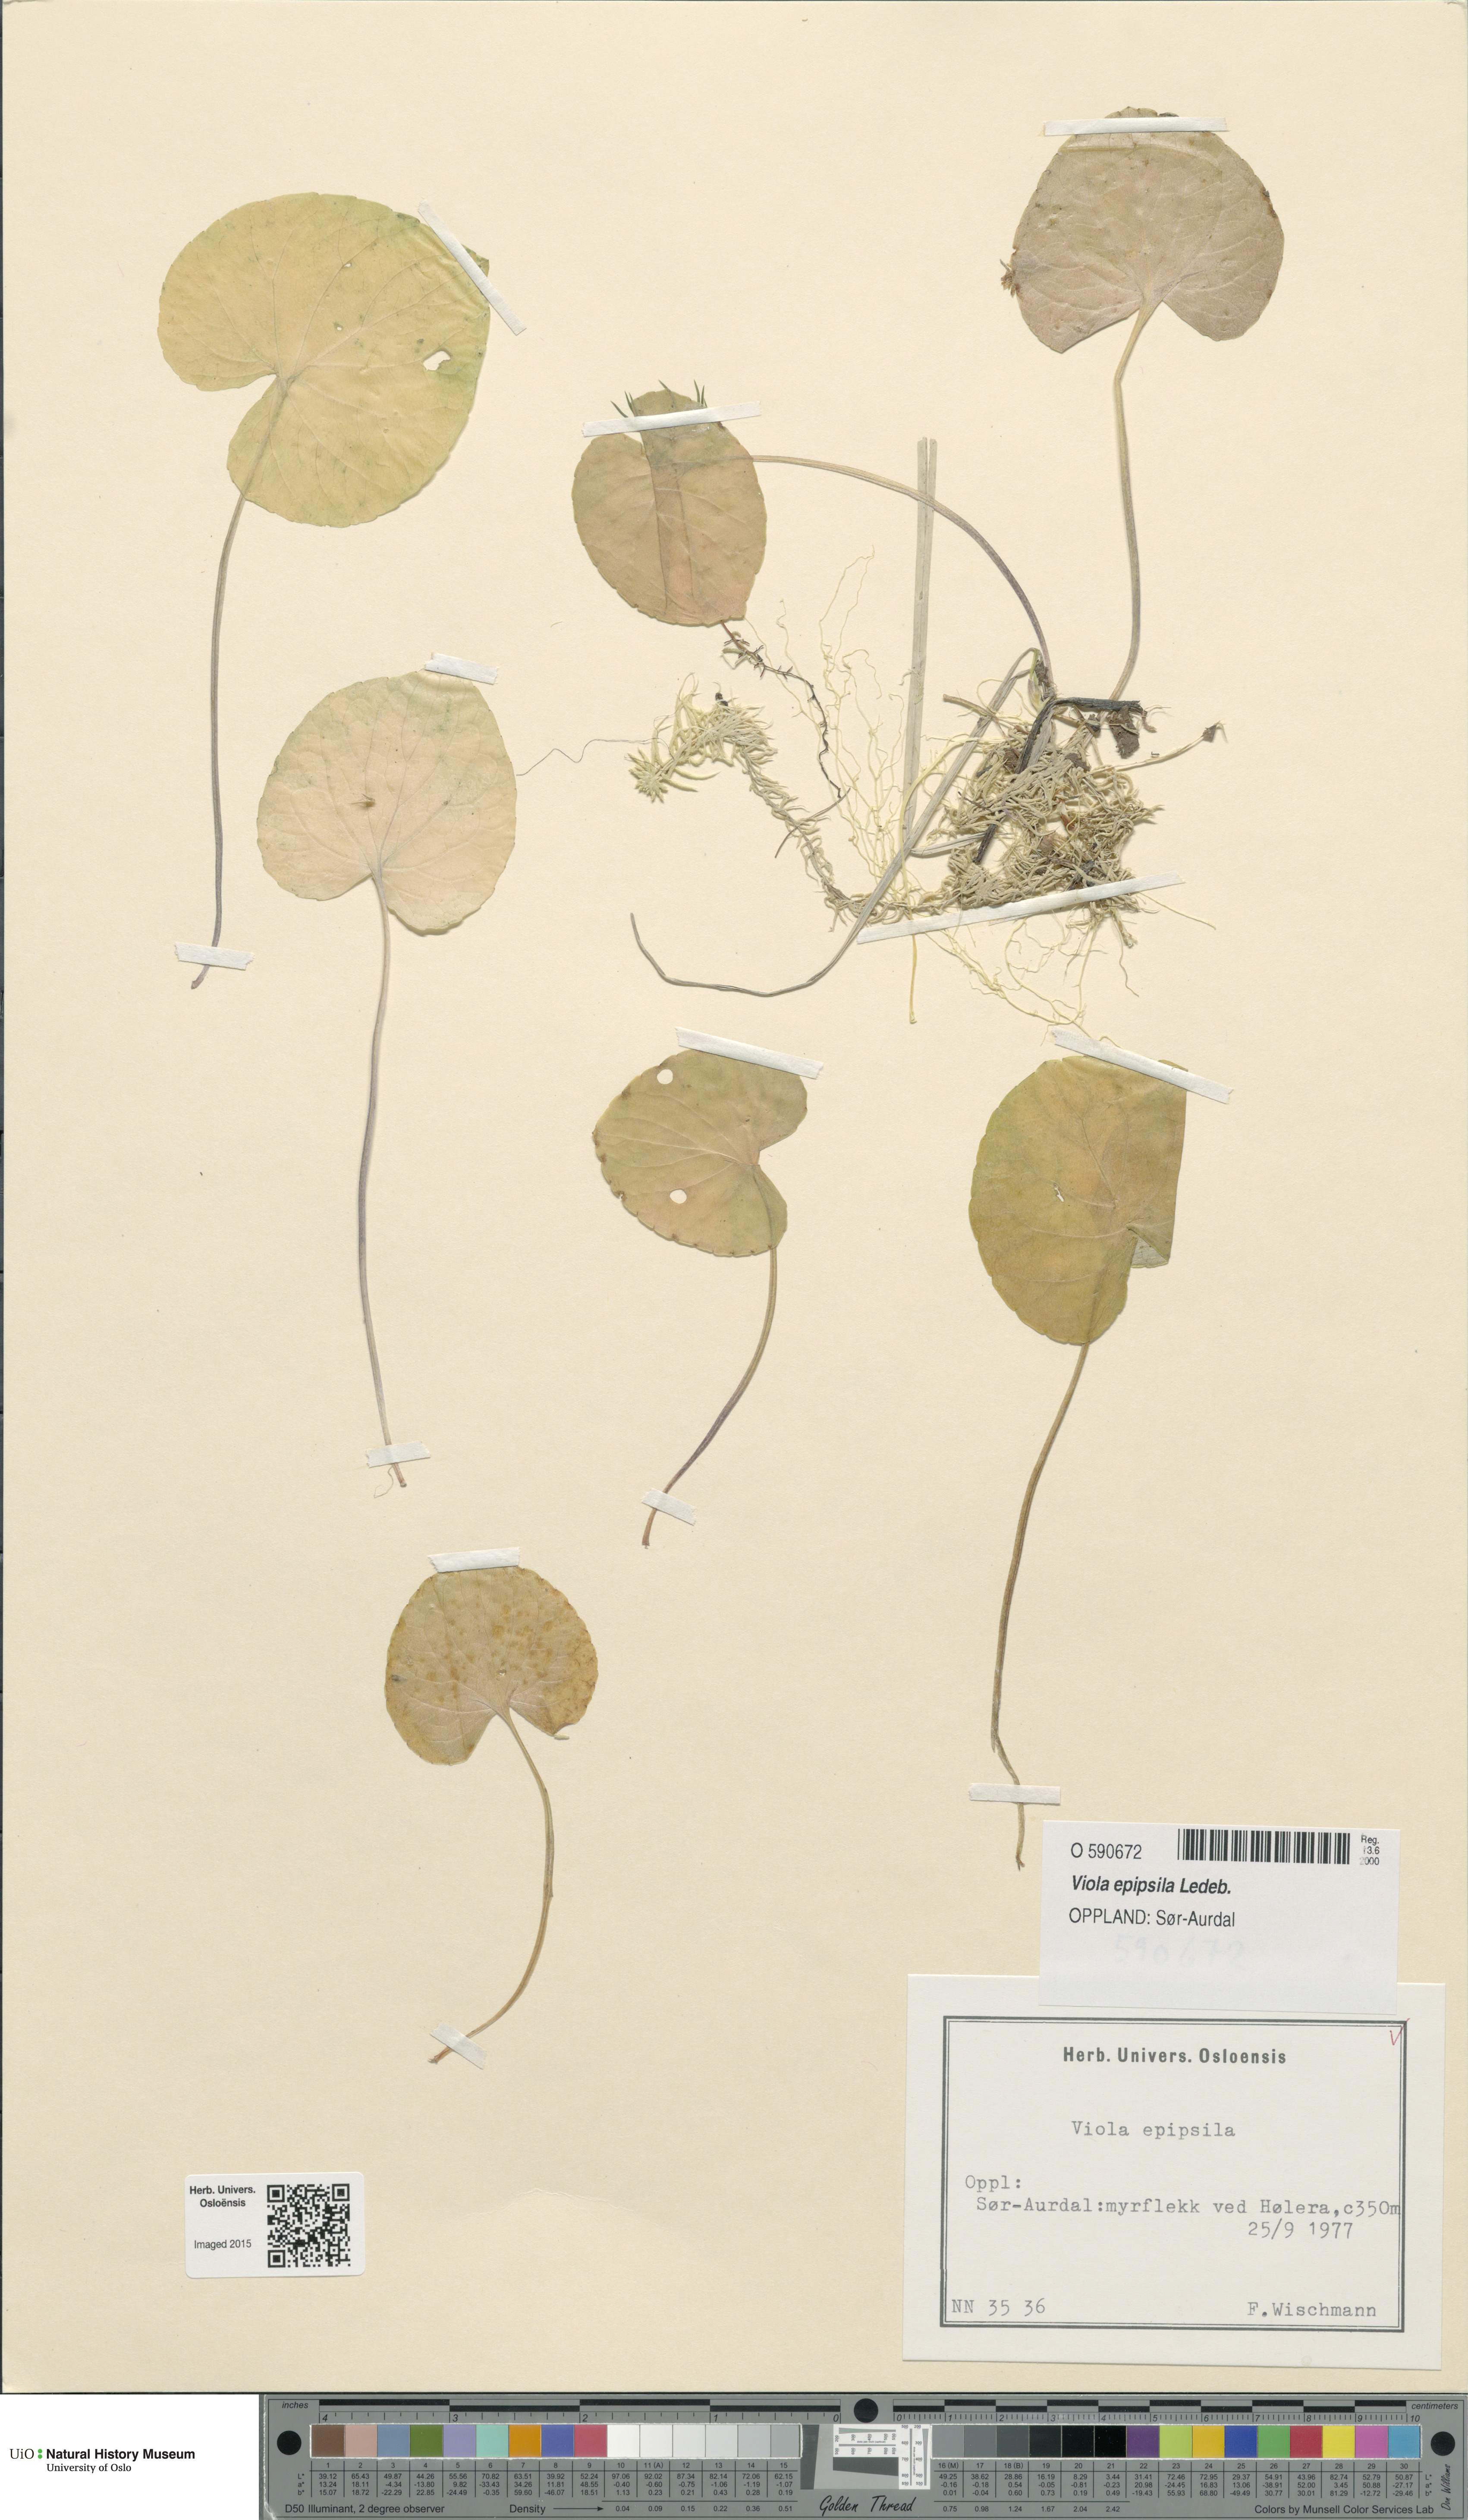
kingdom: Plantae
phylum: Tracheophyta
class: Magnoliopsida
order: Malpighiales
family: Violaceae
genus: Viola
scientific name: Viola epipsila
